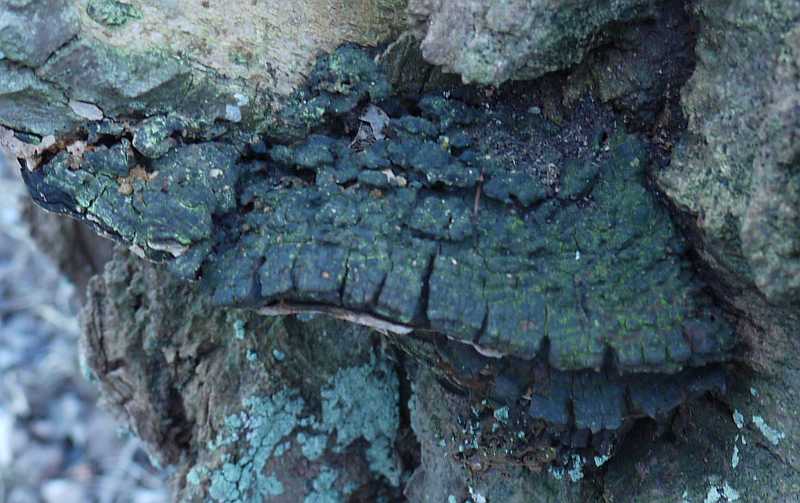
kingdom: Fungi
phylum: Basidiomycota
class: Agaricomycetes
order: Hymenochaetales
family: Hymenochaetaceae
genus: Phellinus
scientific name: Phellinus tremulae
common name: aspe-ildporesvamp
